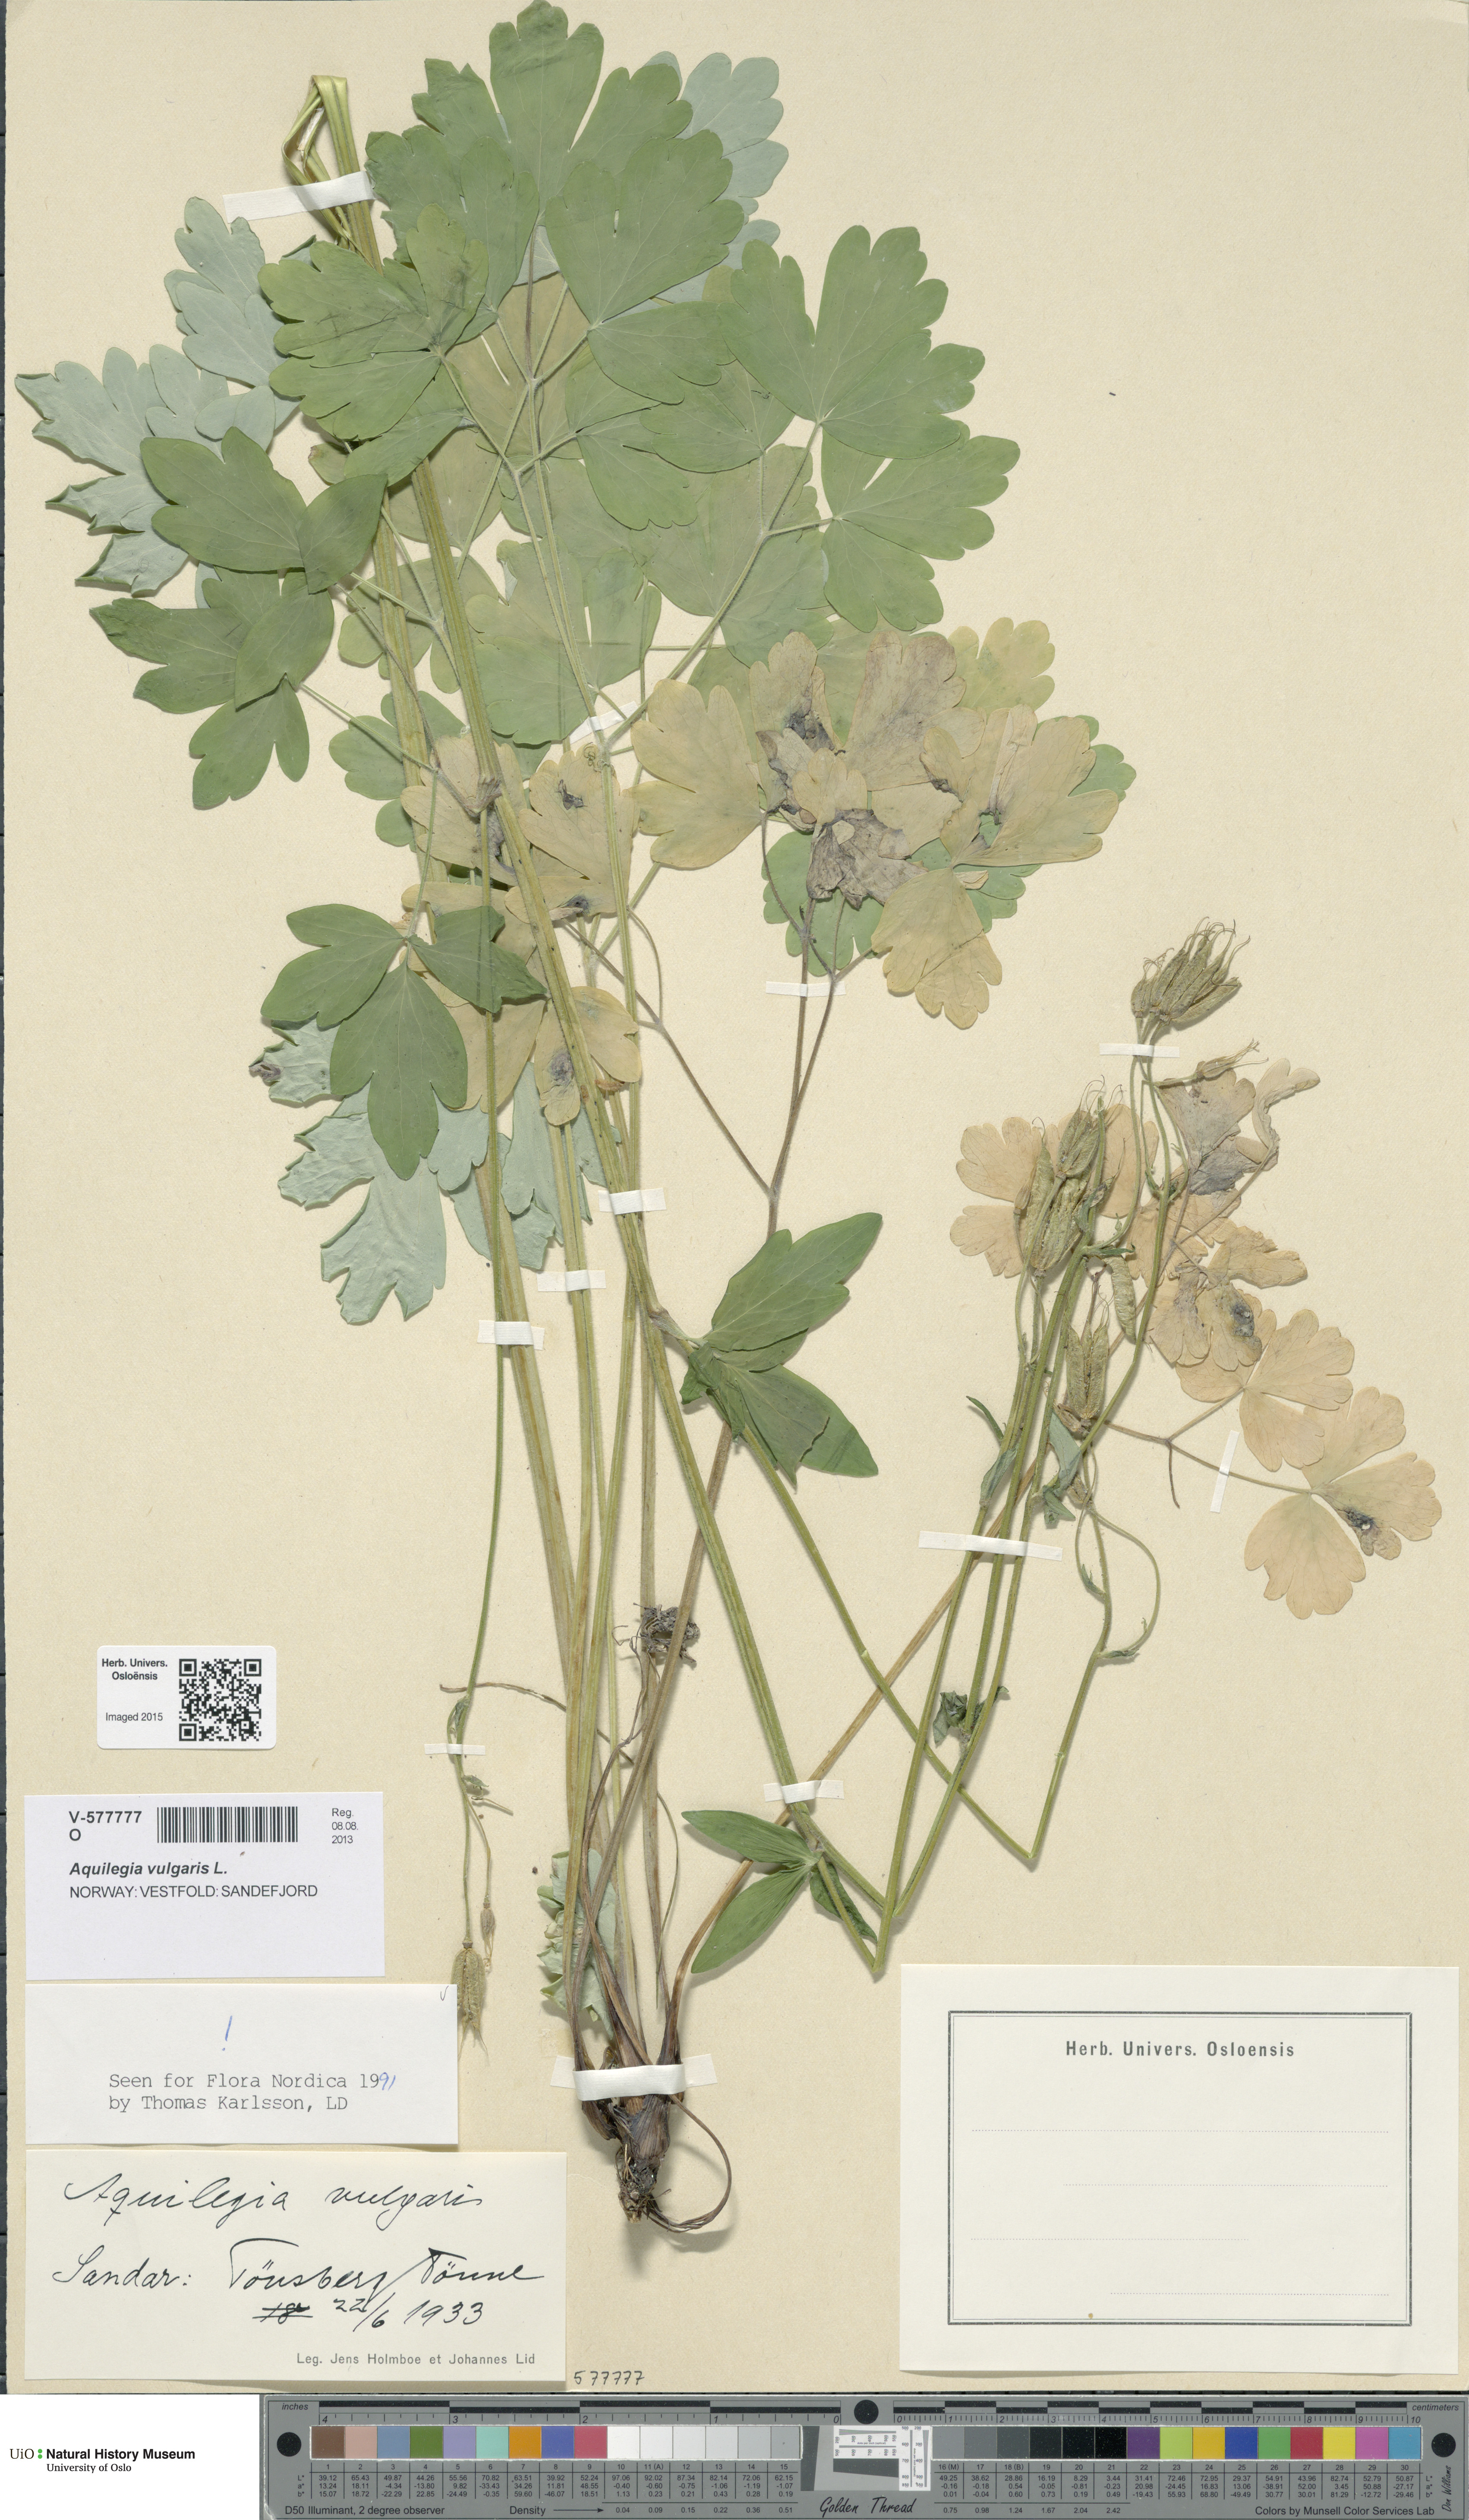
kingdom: Plantae
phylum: Tracheophyta
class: Magnoliopsida
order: Ranunculales
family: Ranunculaceae
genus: Aquilegia
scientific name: Aquilegia vulgaris
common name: Columbine
